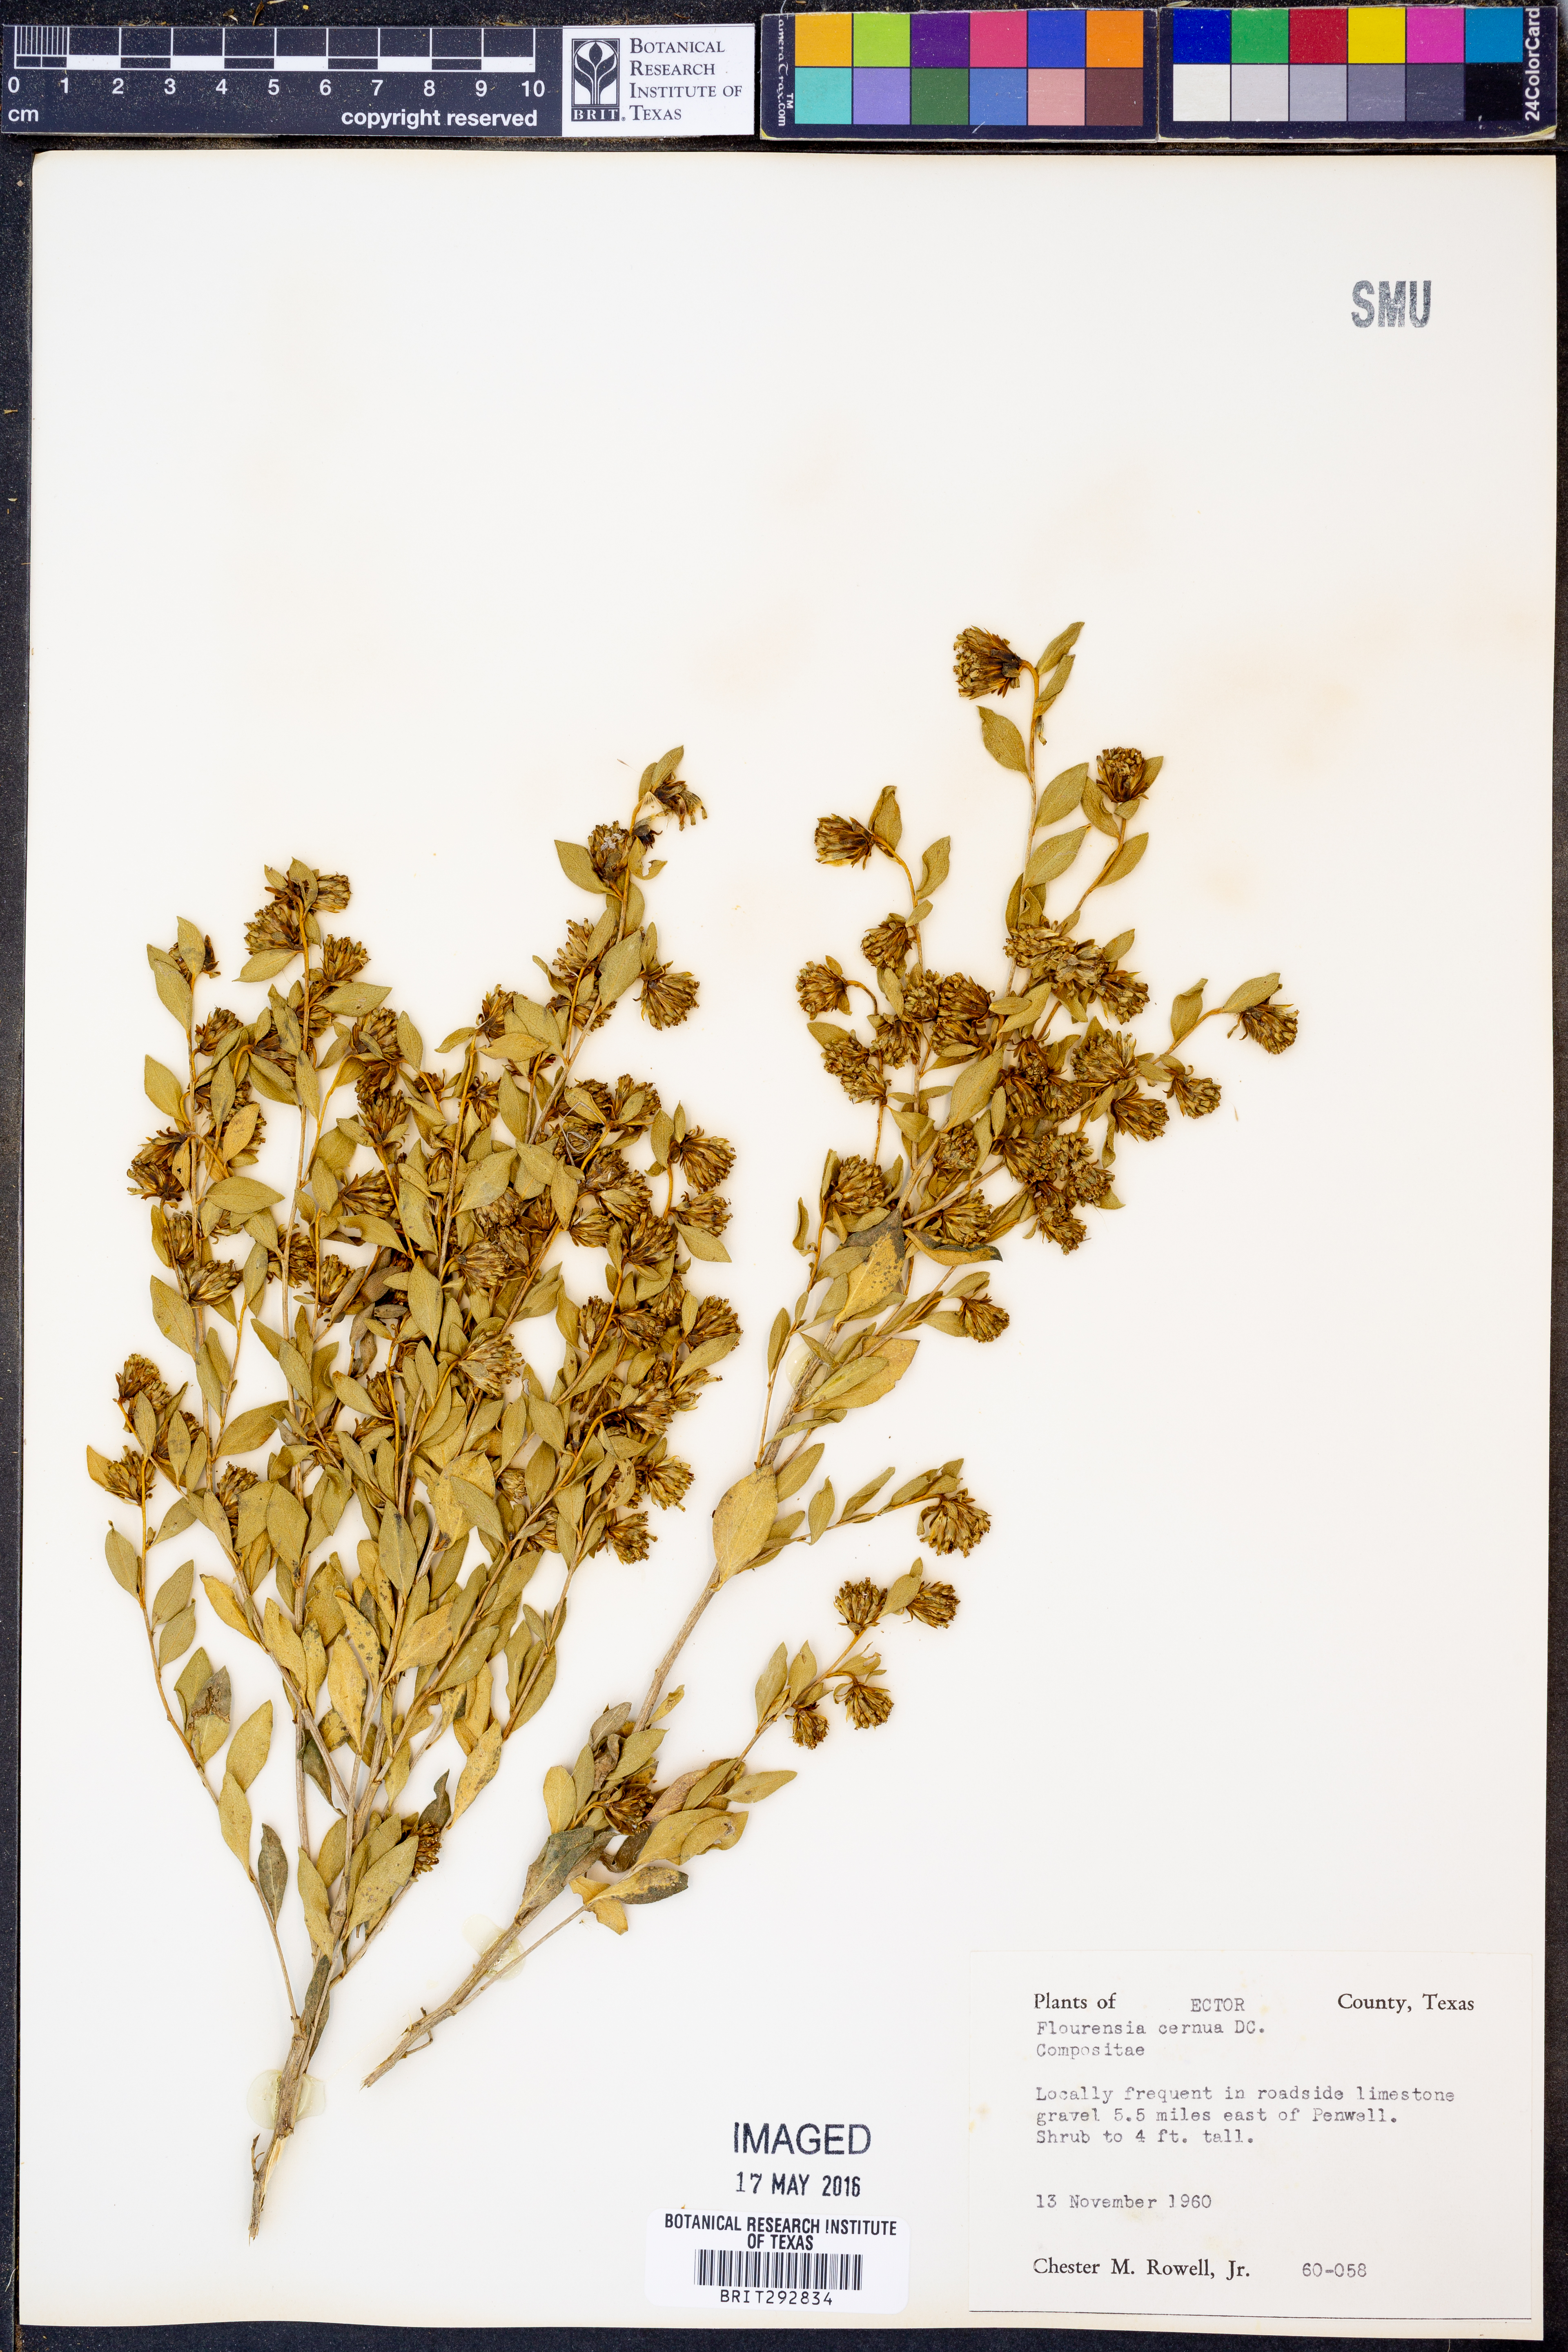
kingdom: Plantae
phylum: Tracheophyta
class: Magnoliopsida
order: Asterales
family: Asteraceae
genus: Flourensia
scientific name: Flourensia cernua
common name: Varnishbush
